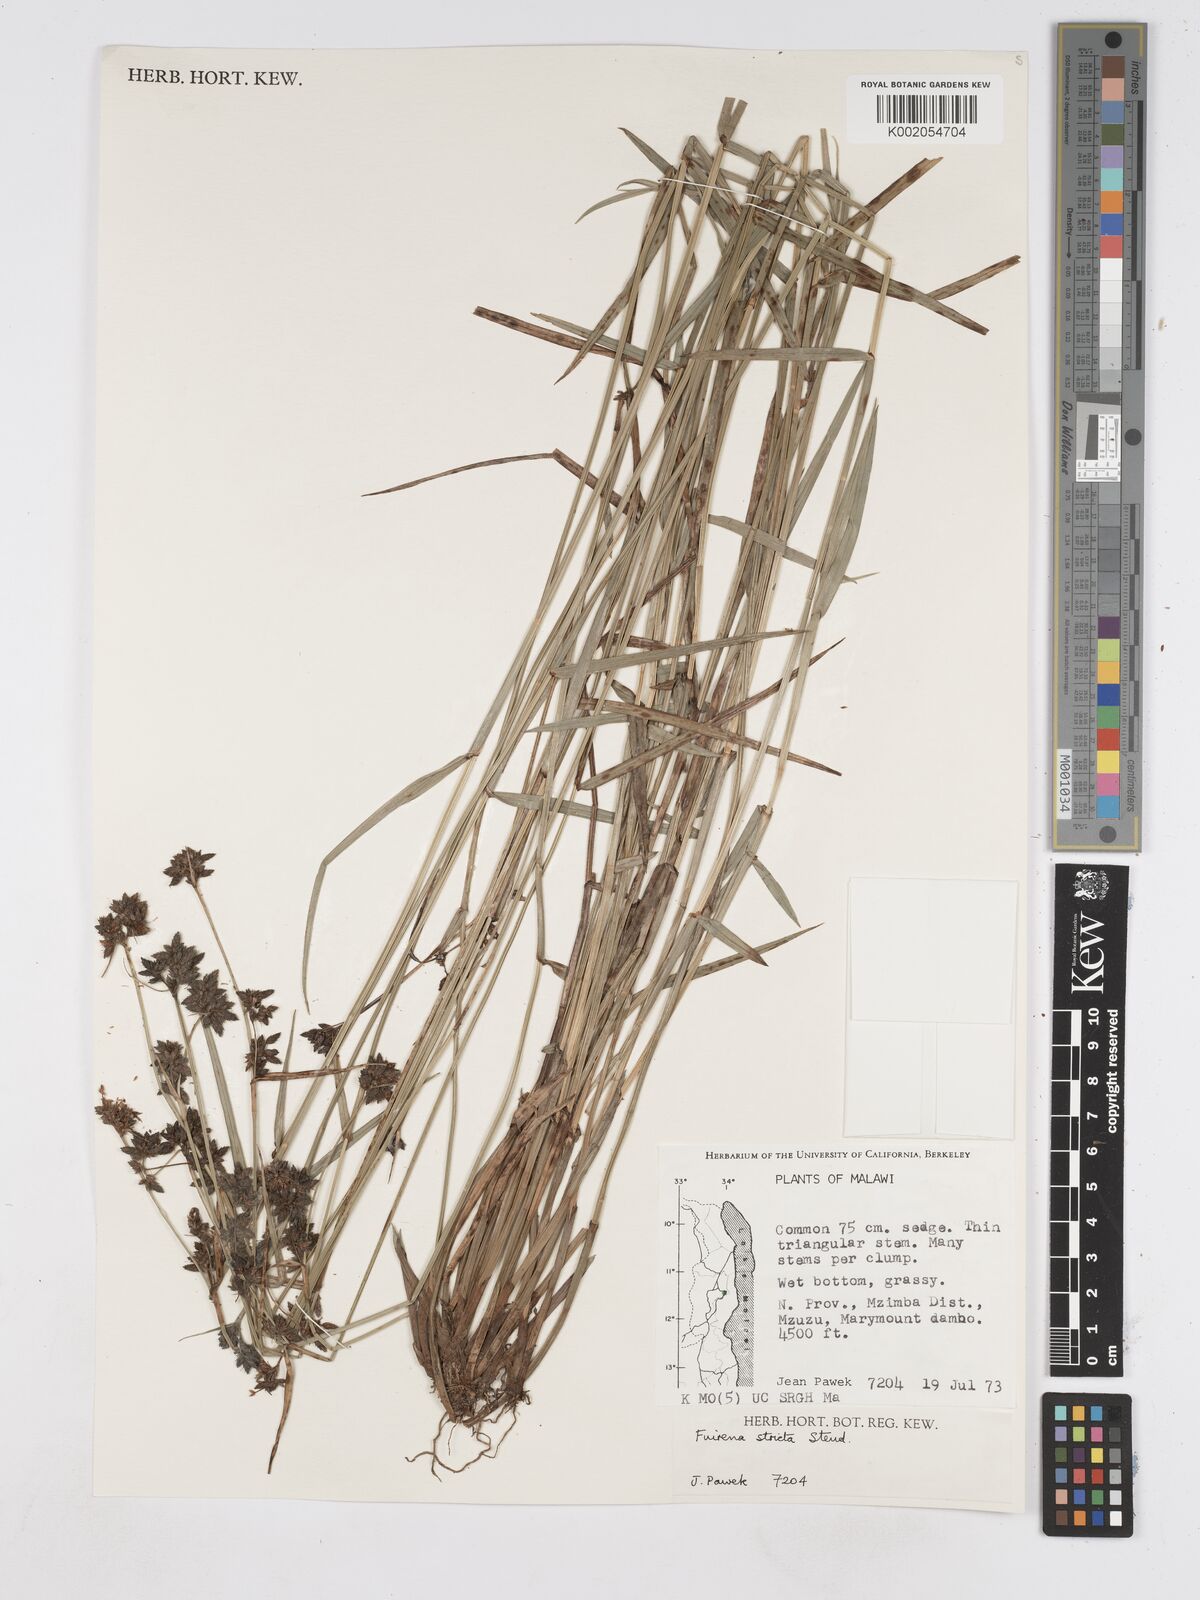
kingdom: Plantae
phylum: Tracheophyta
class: Liliopsida
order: Poales
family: Cyperaceae
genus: Fuirena
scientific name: Fuirena stricta
